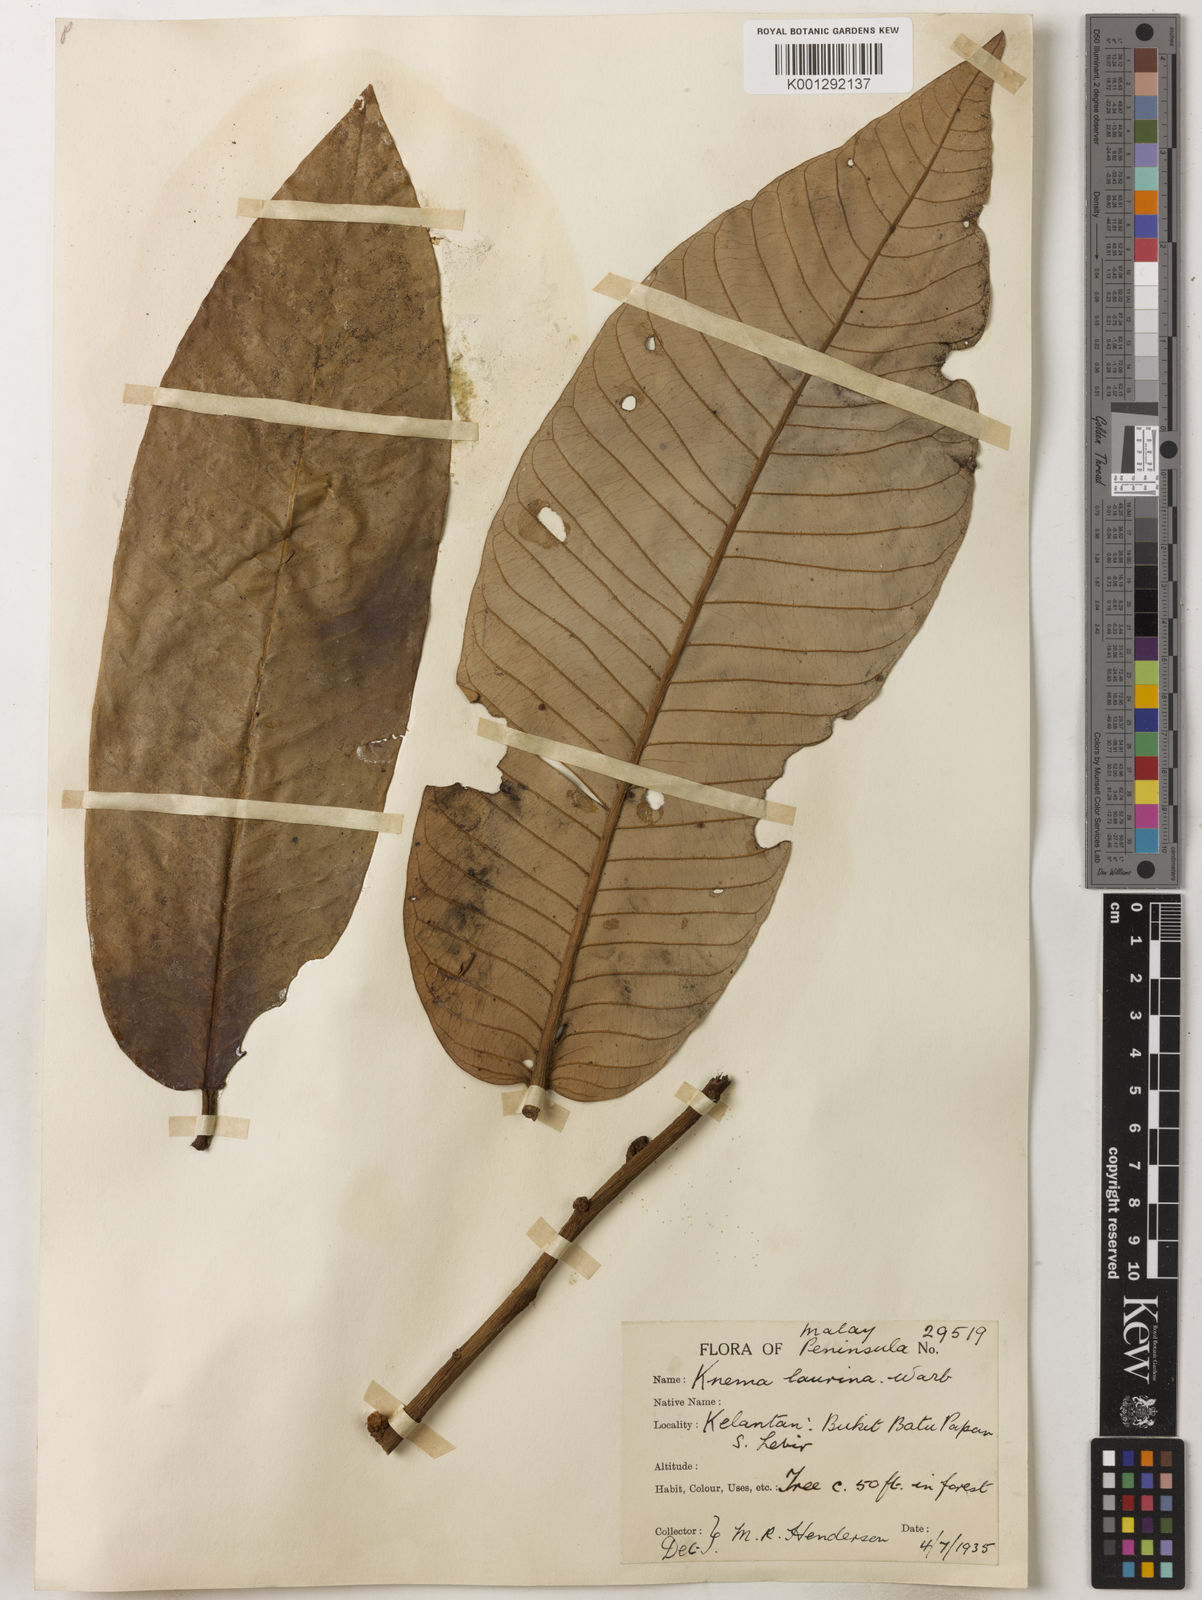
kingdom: Plantae
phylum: Tracheophyta
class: Magnoliopsida
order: Magnoliales
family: Myristicaceae
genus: Knema
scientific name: Knema laurina
